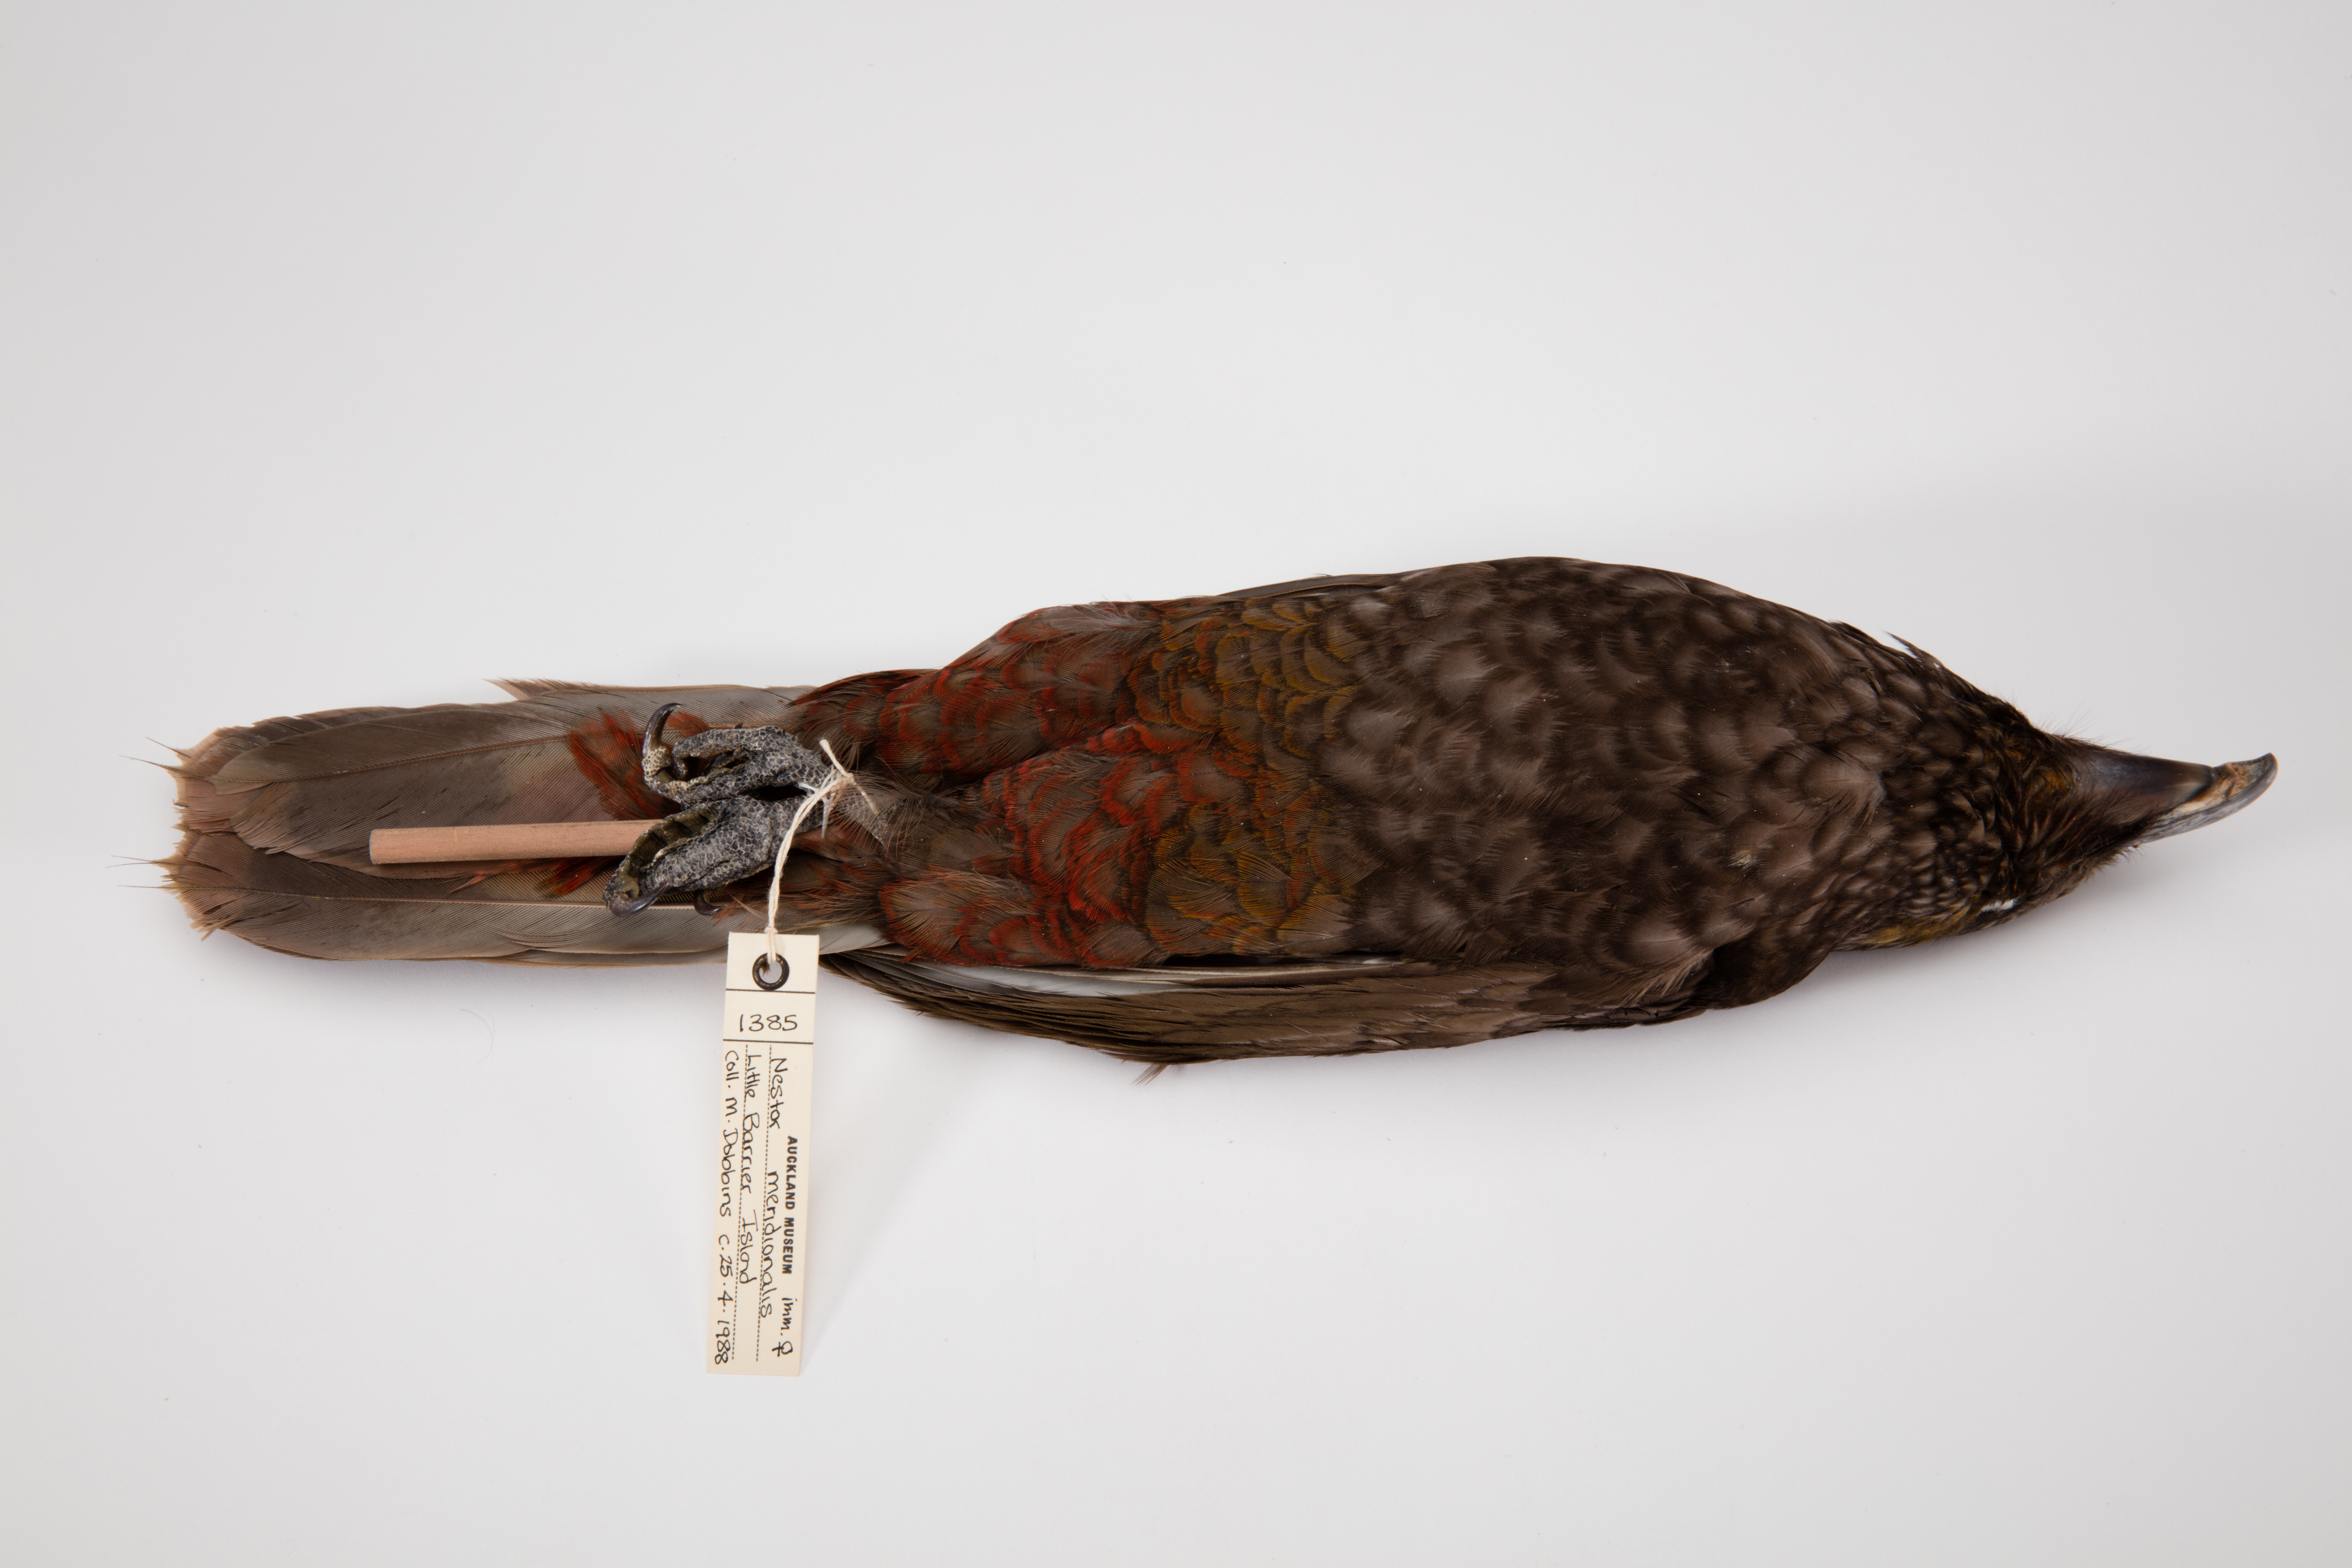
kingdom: Animalia
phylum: Chordata
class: Aves
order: Psittaciformes
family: Psittacidae
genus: Nestor
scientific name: Nestor meridionalis
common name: New zealand kaka
